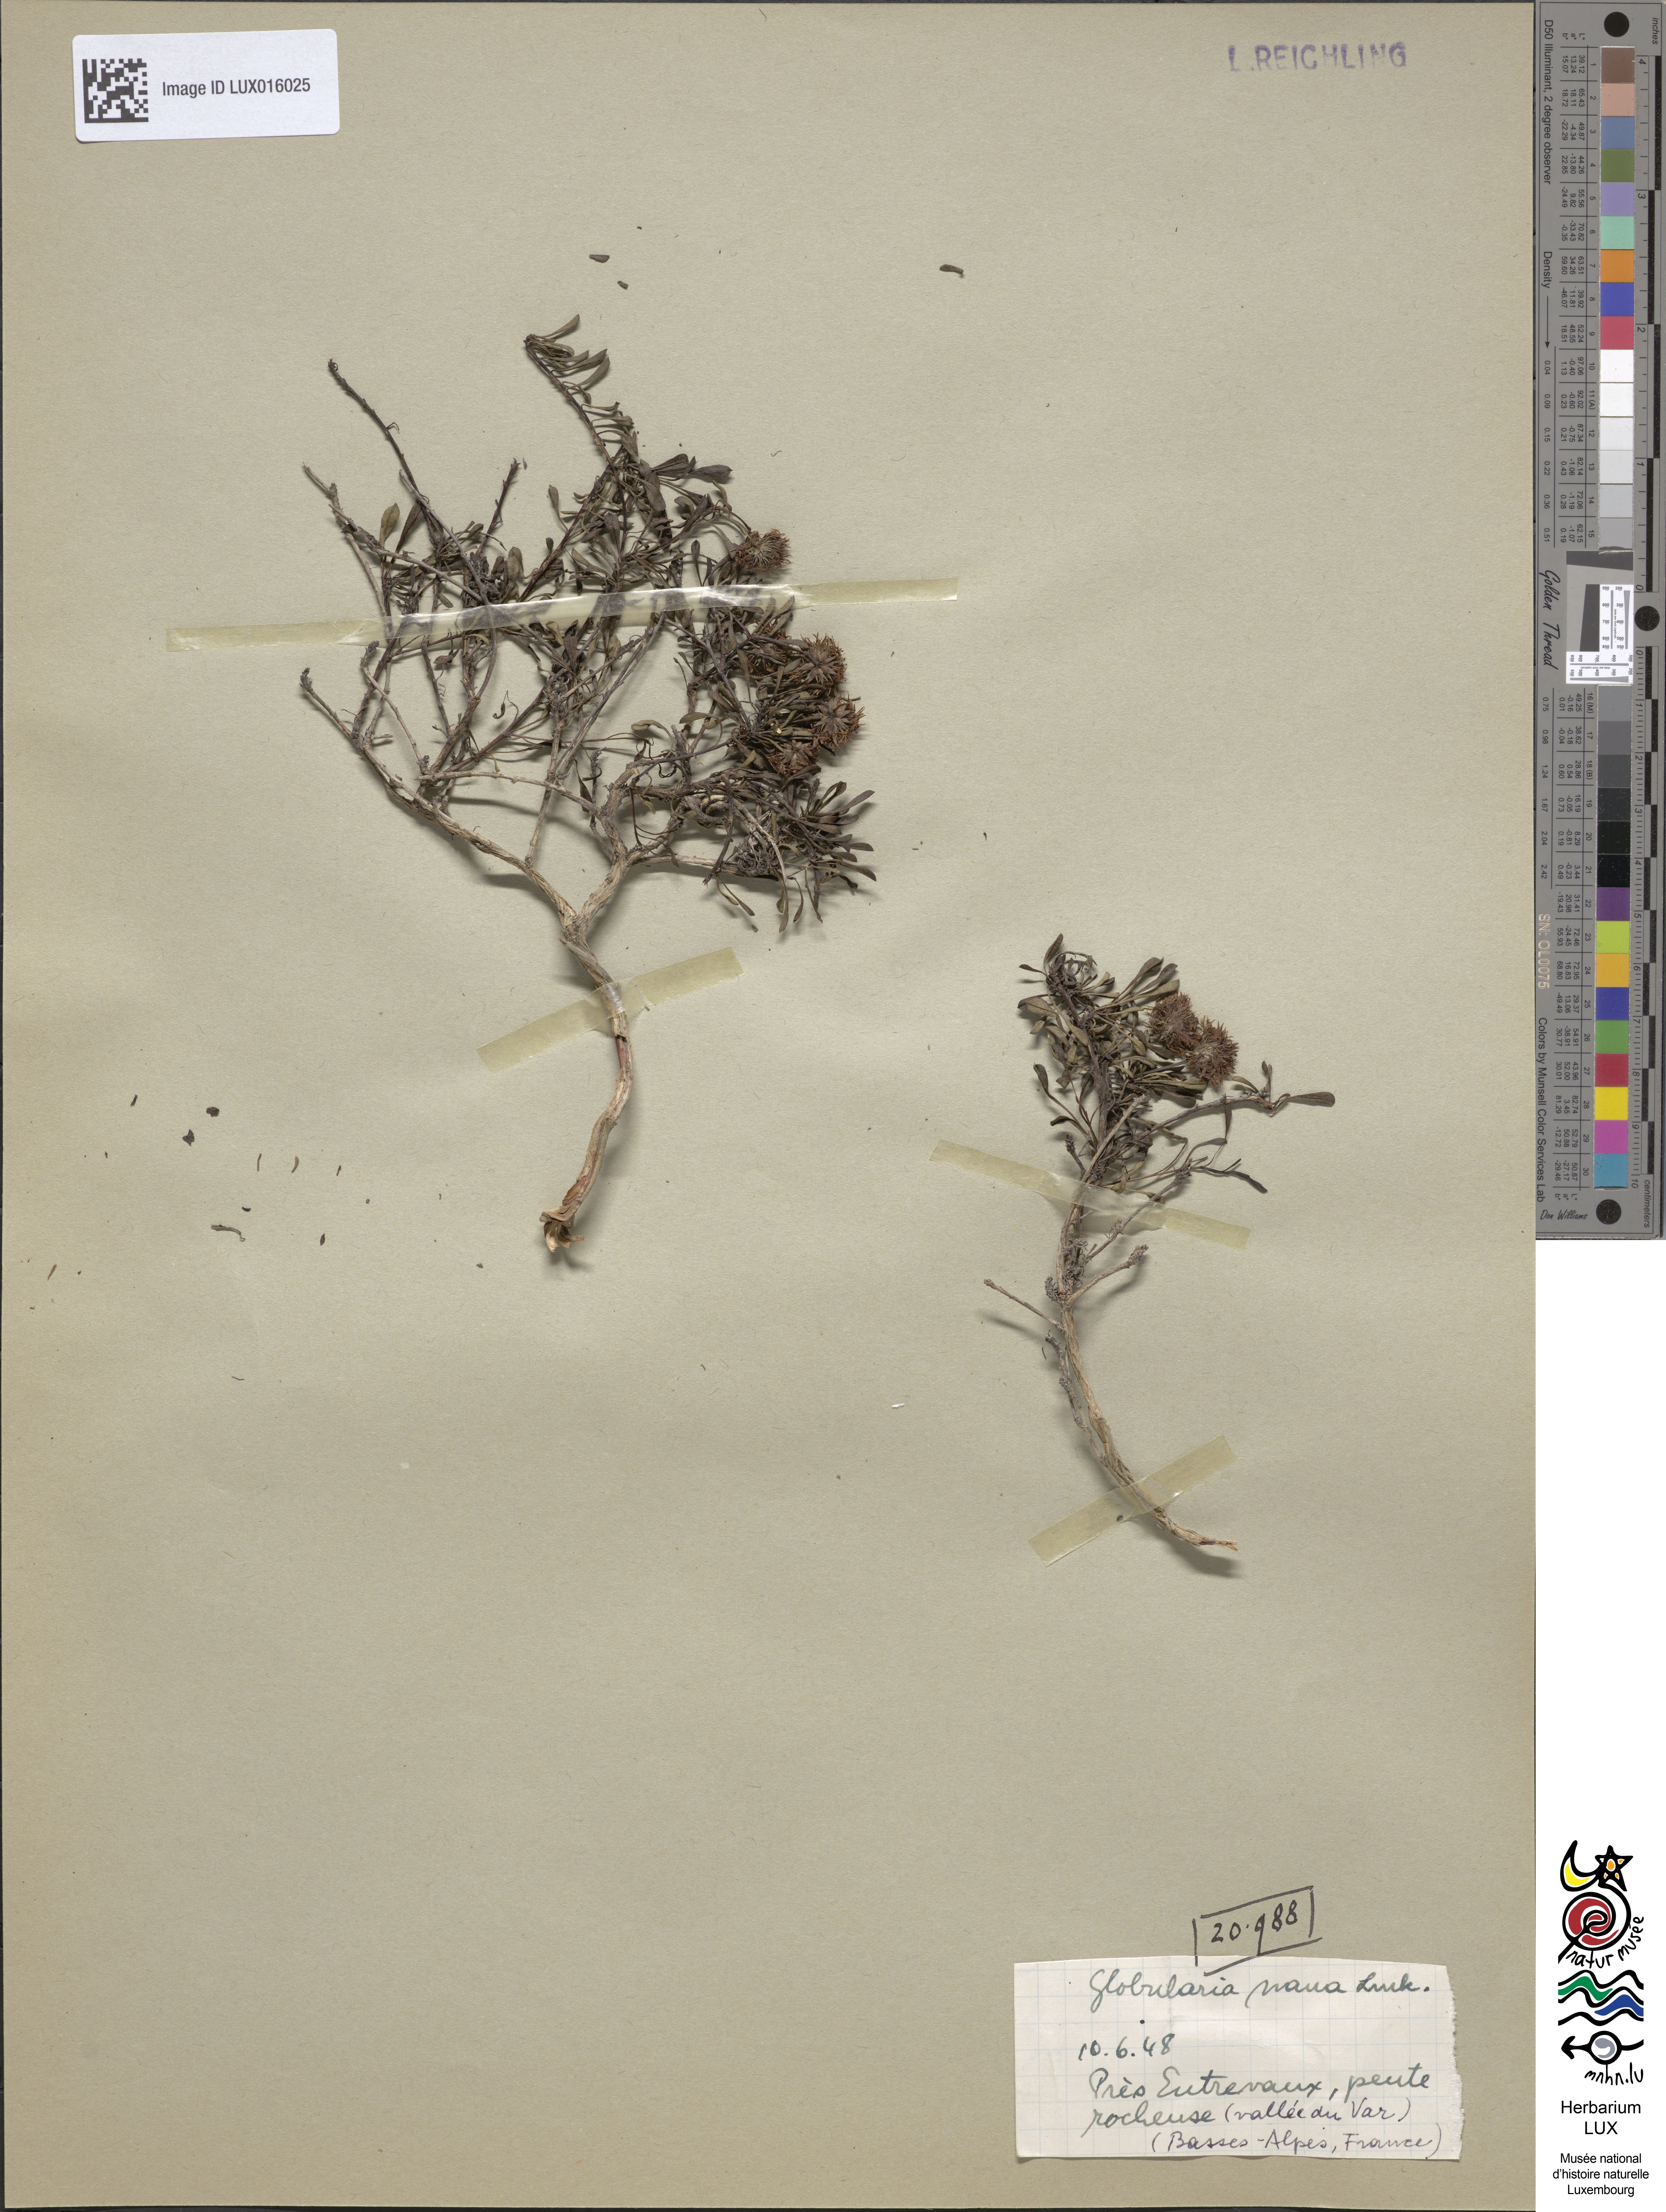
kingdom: Plantae
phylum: Tracheophyta
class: Magnoliopsida
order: Lamiales
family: Plantaginaceae
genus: Globularia
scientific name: Globularia repens
